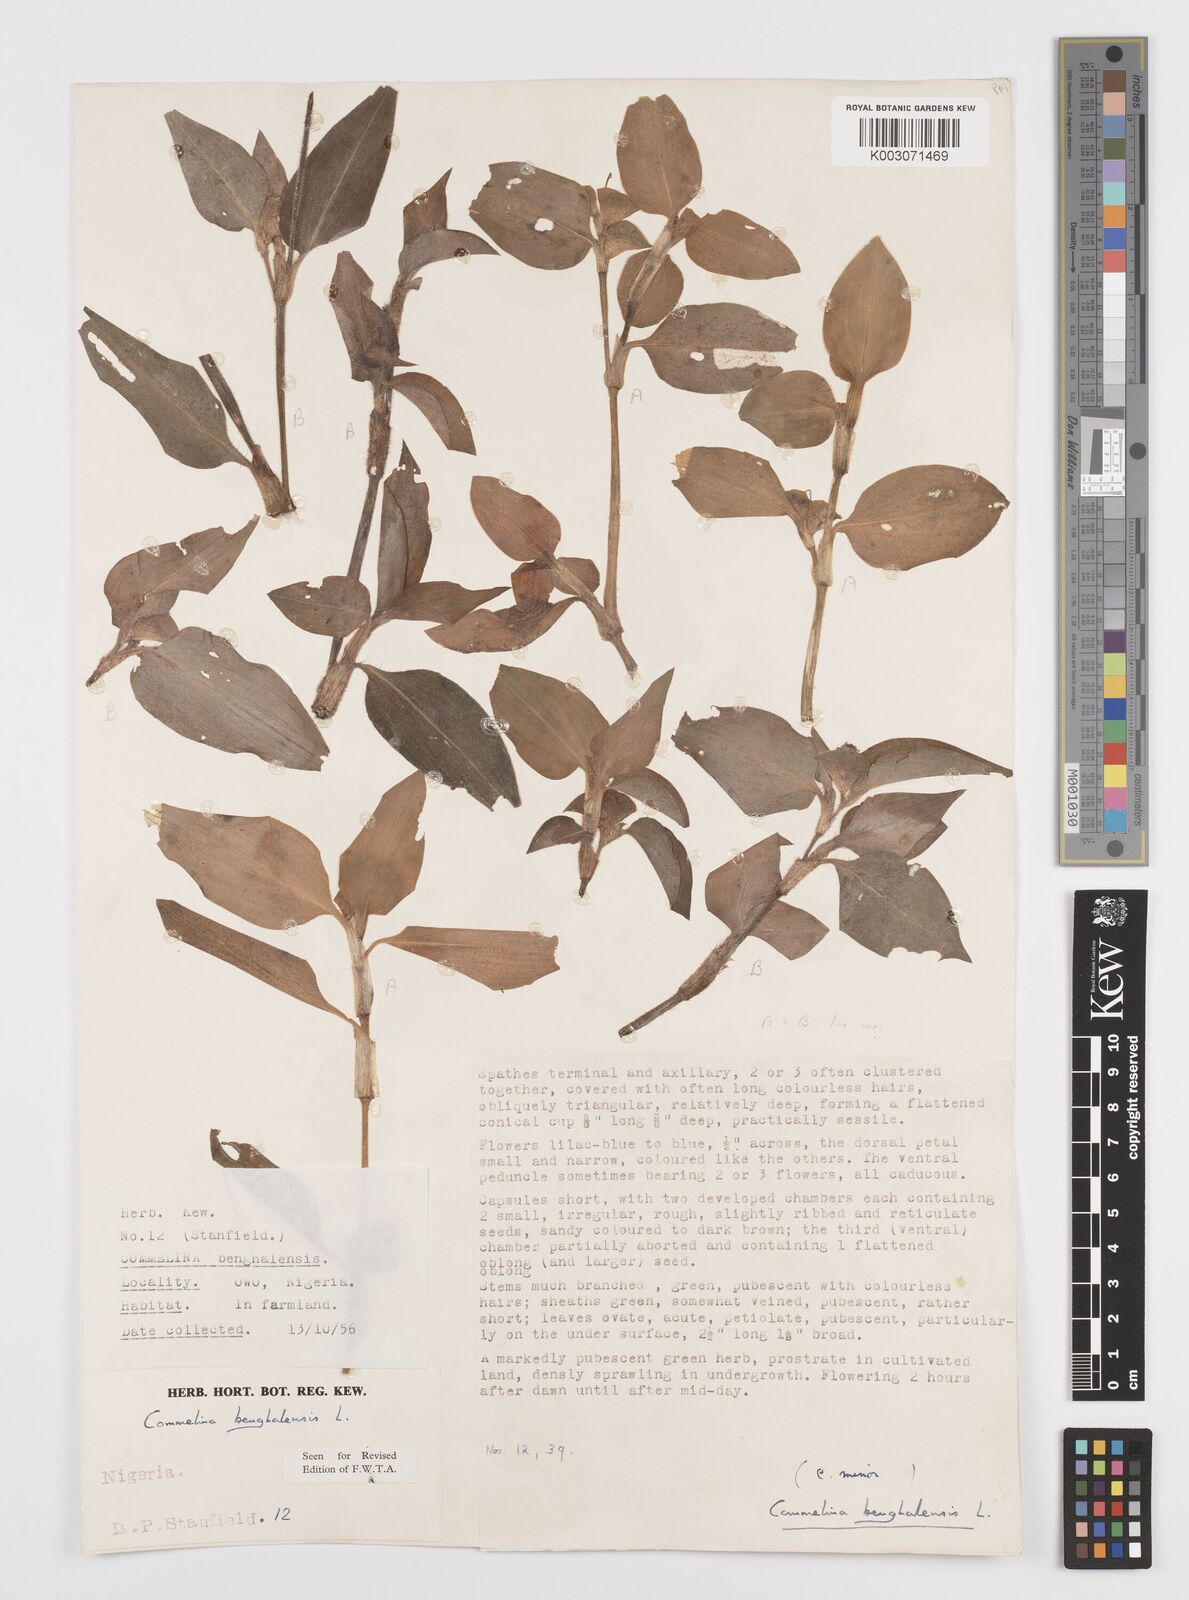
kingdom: Plantae
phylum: Tracheophyta
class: Liliopsida
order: Commelinales
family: Commelinaceae
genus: Commelina
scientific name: Commelina benghalensis
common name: Jio
